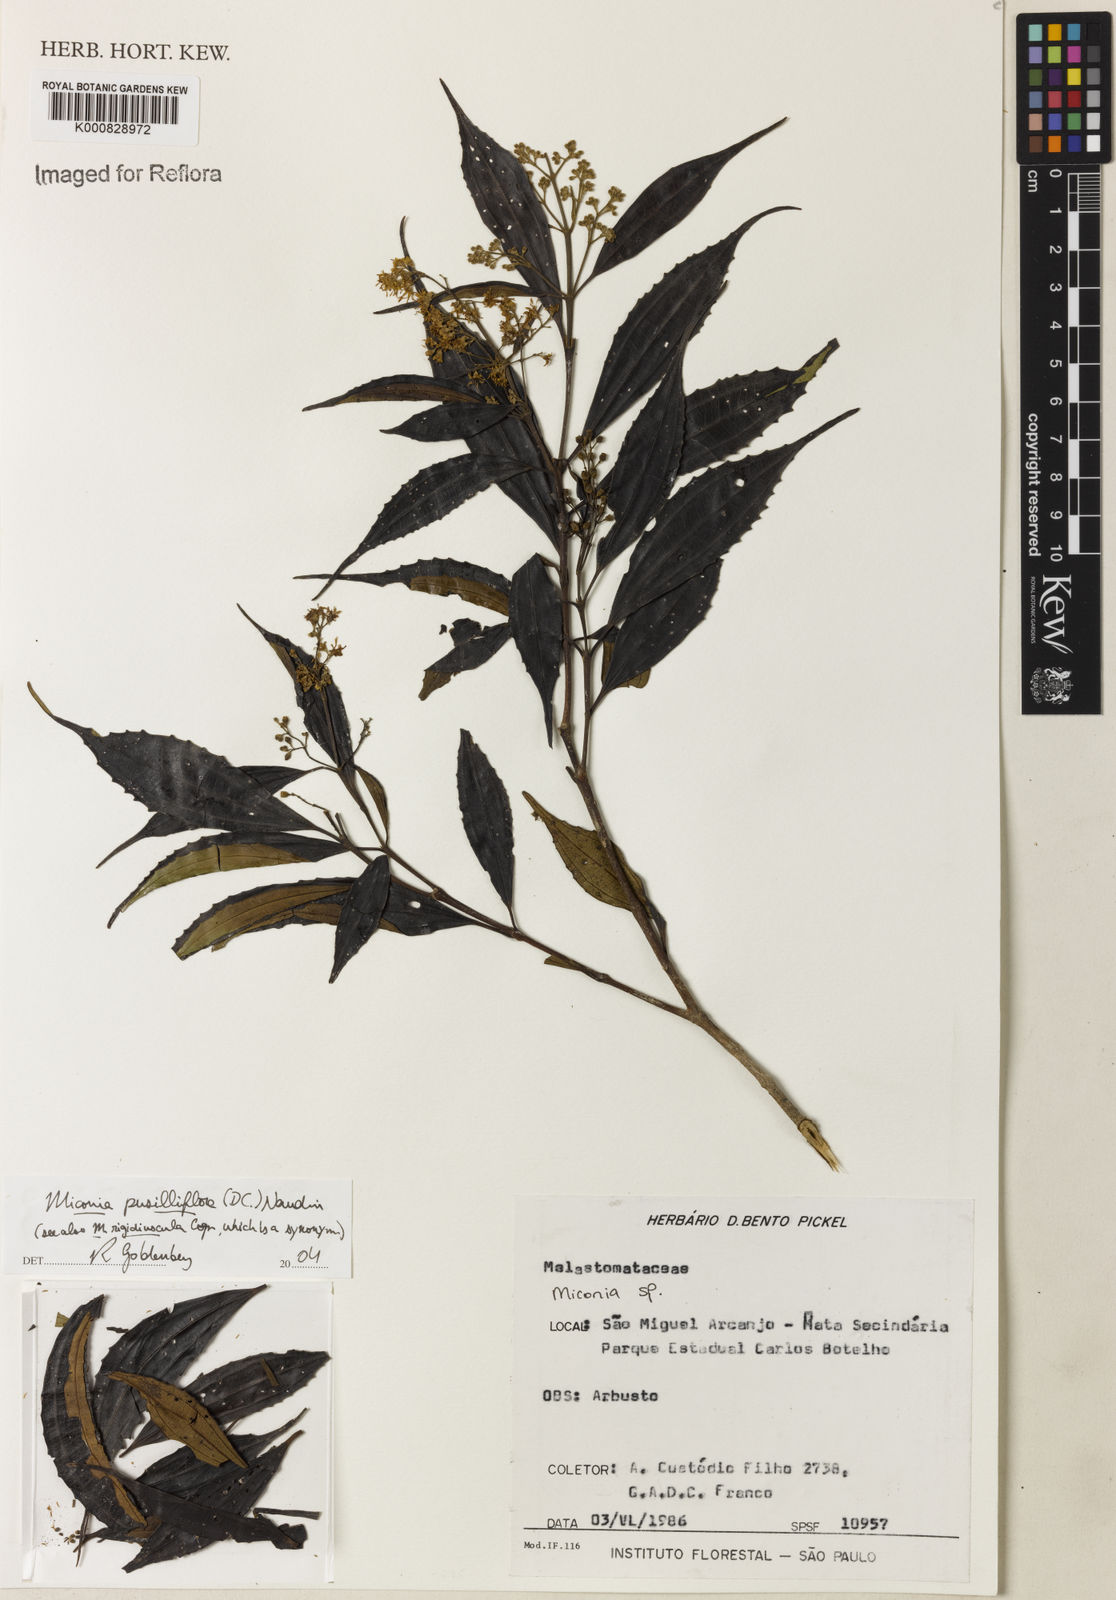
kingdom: Plantae
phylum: Tracheophyta
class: Magnoliopsida
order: Myrtales
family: Melastomataceae
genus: Miconia
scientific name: Miconia pusilliflora
